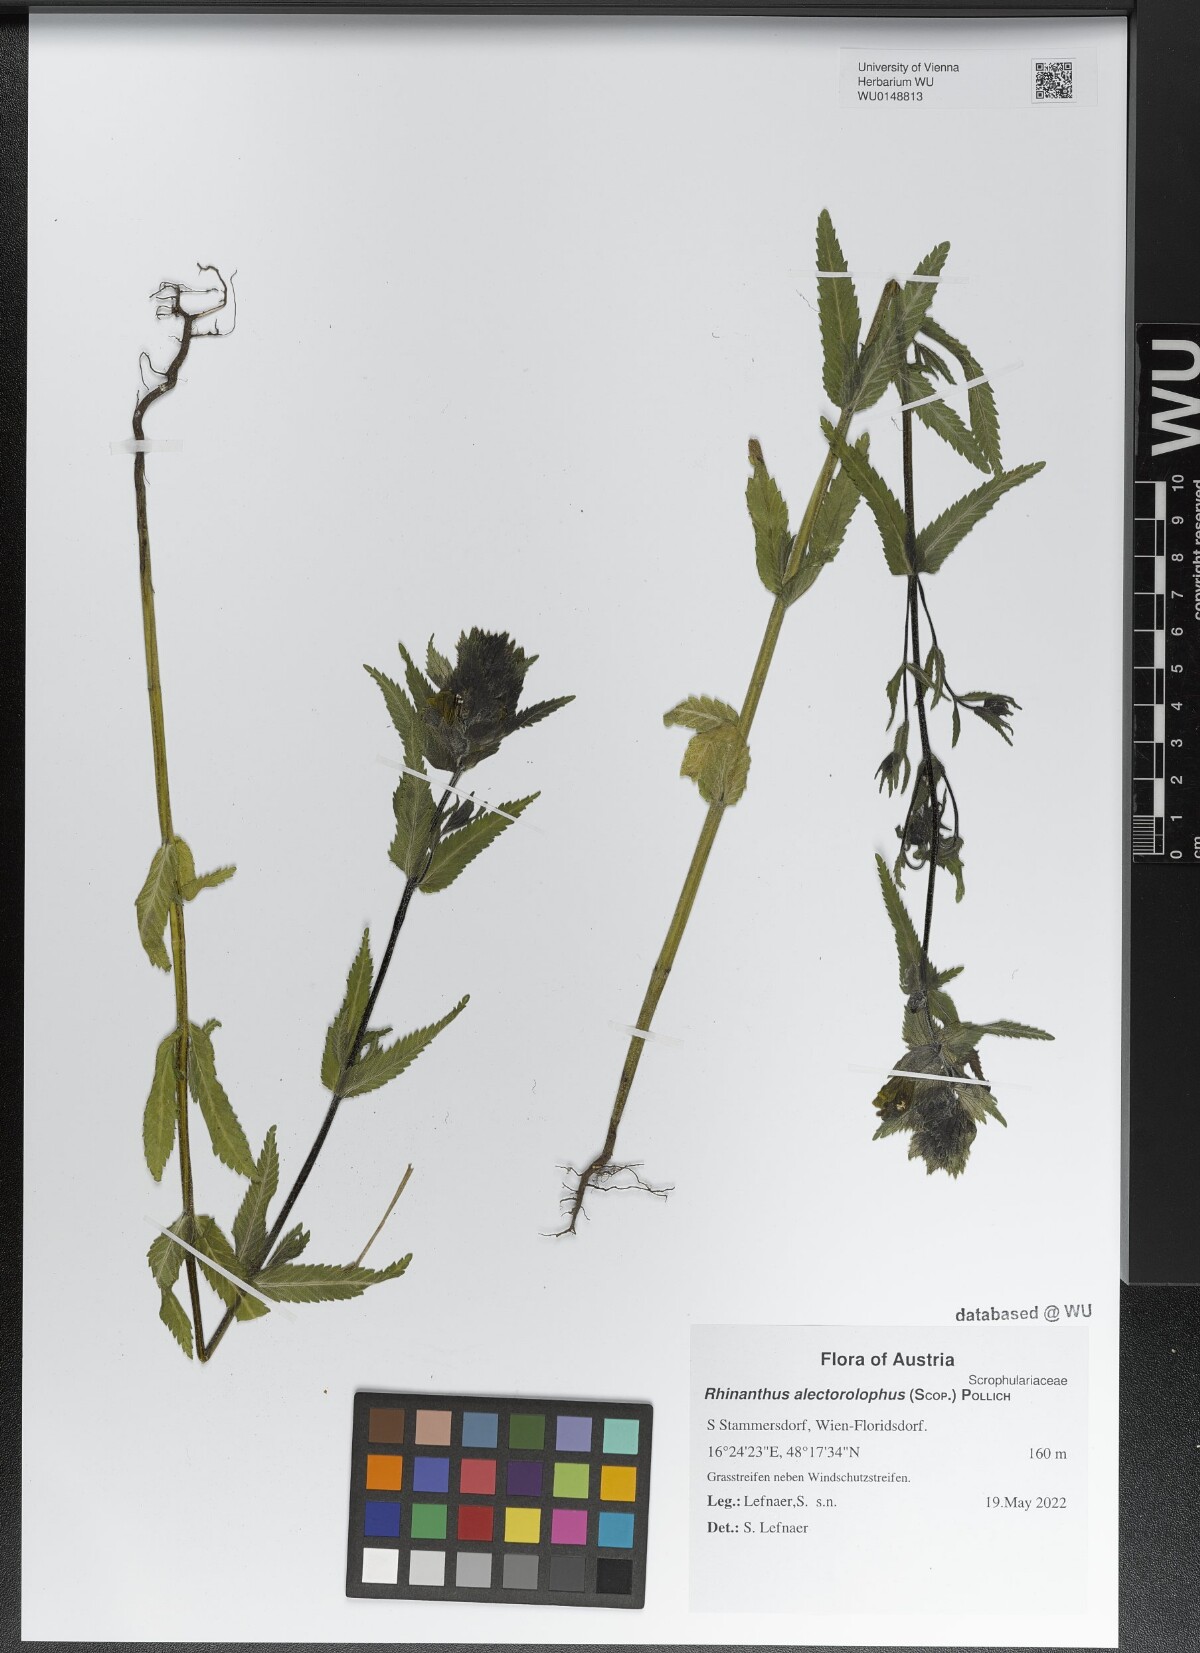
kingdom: Plantae
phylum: Tracheophyta
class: Magnoliopsida
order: Lamiales
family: Orobanchaceae
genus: Rhinanthus
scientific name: Rhinanthus alectorolophus
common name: Greater yellow-rattle
